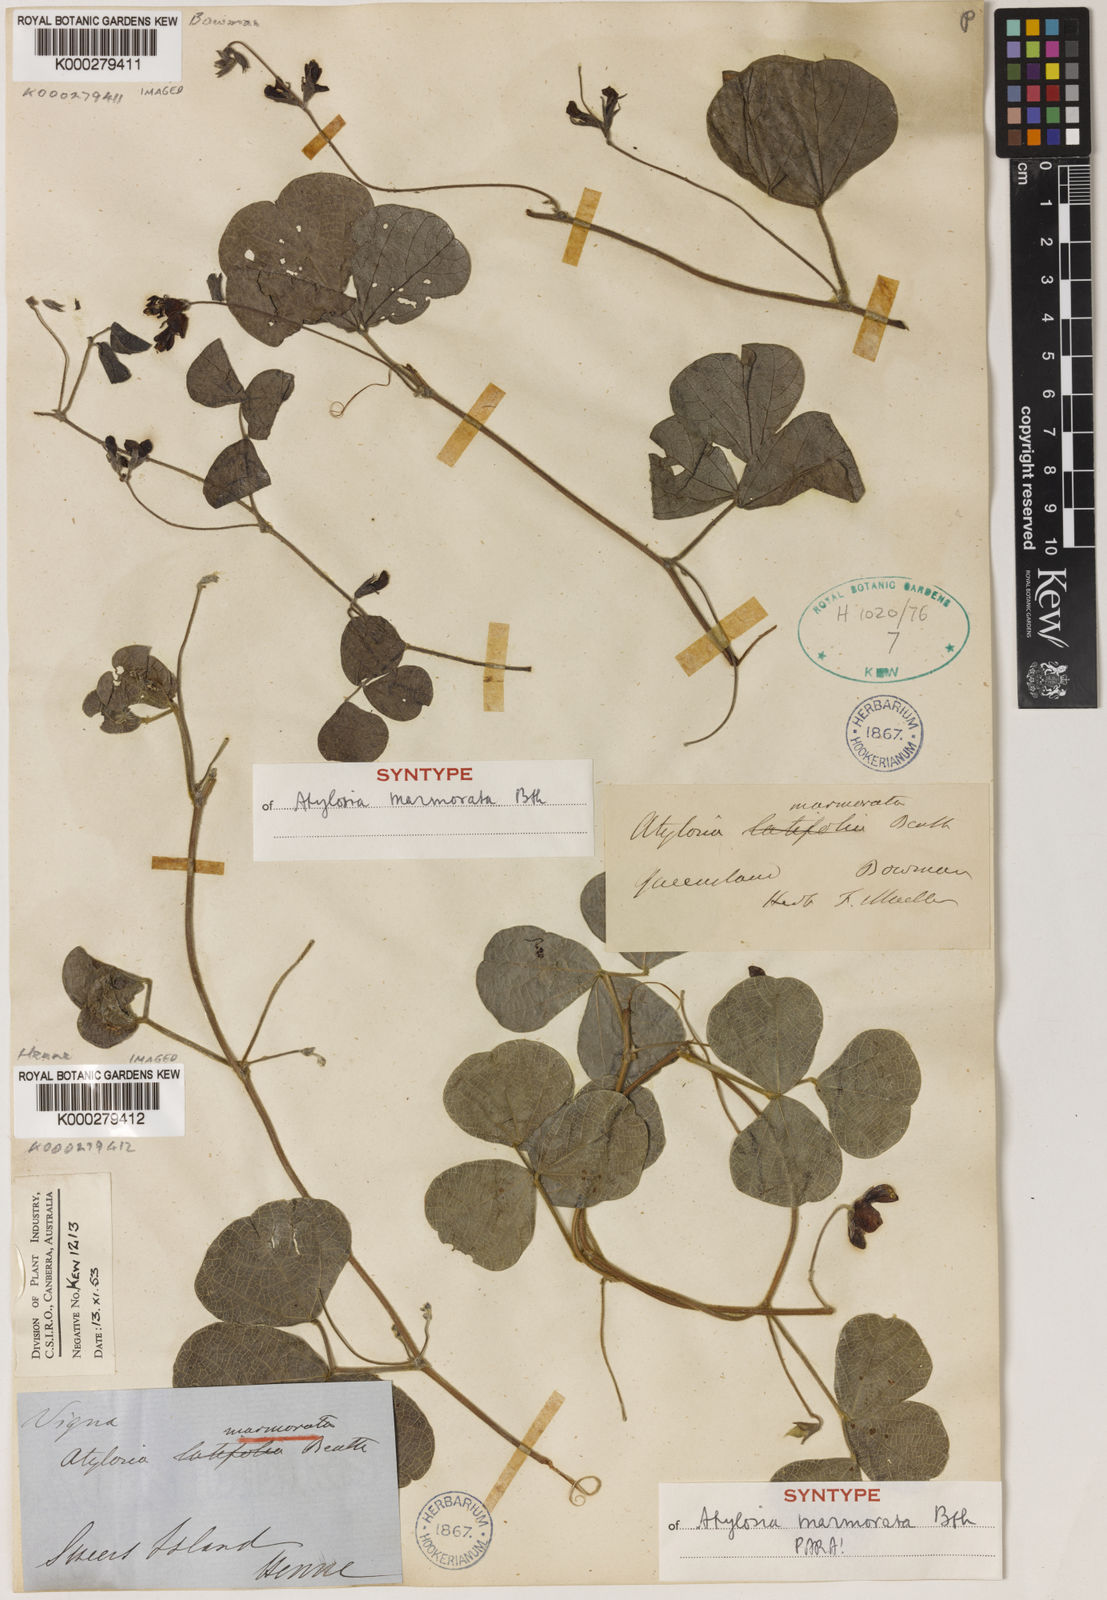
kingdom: Plantae
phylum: Tracheophyta
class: Magnoliopsida
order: Fabales
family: Fabaceae
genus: Cajanus
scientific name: Cajanus marmoratus
